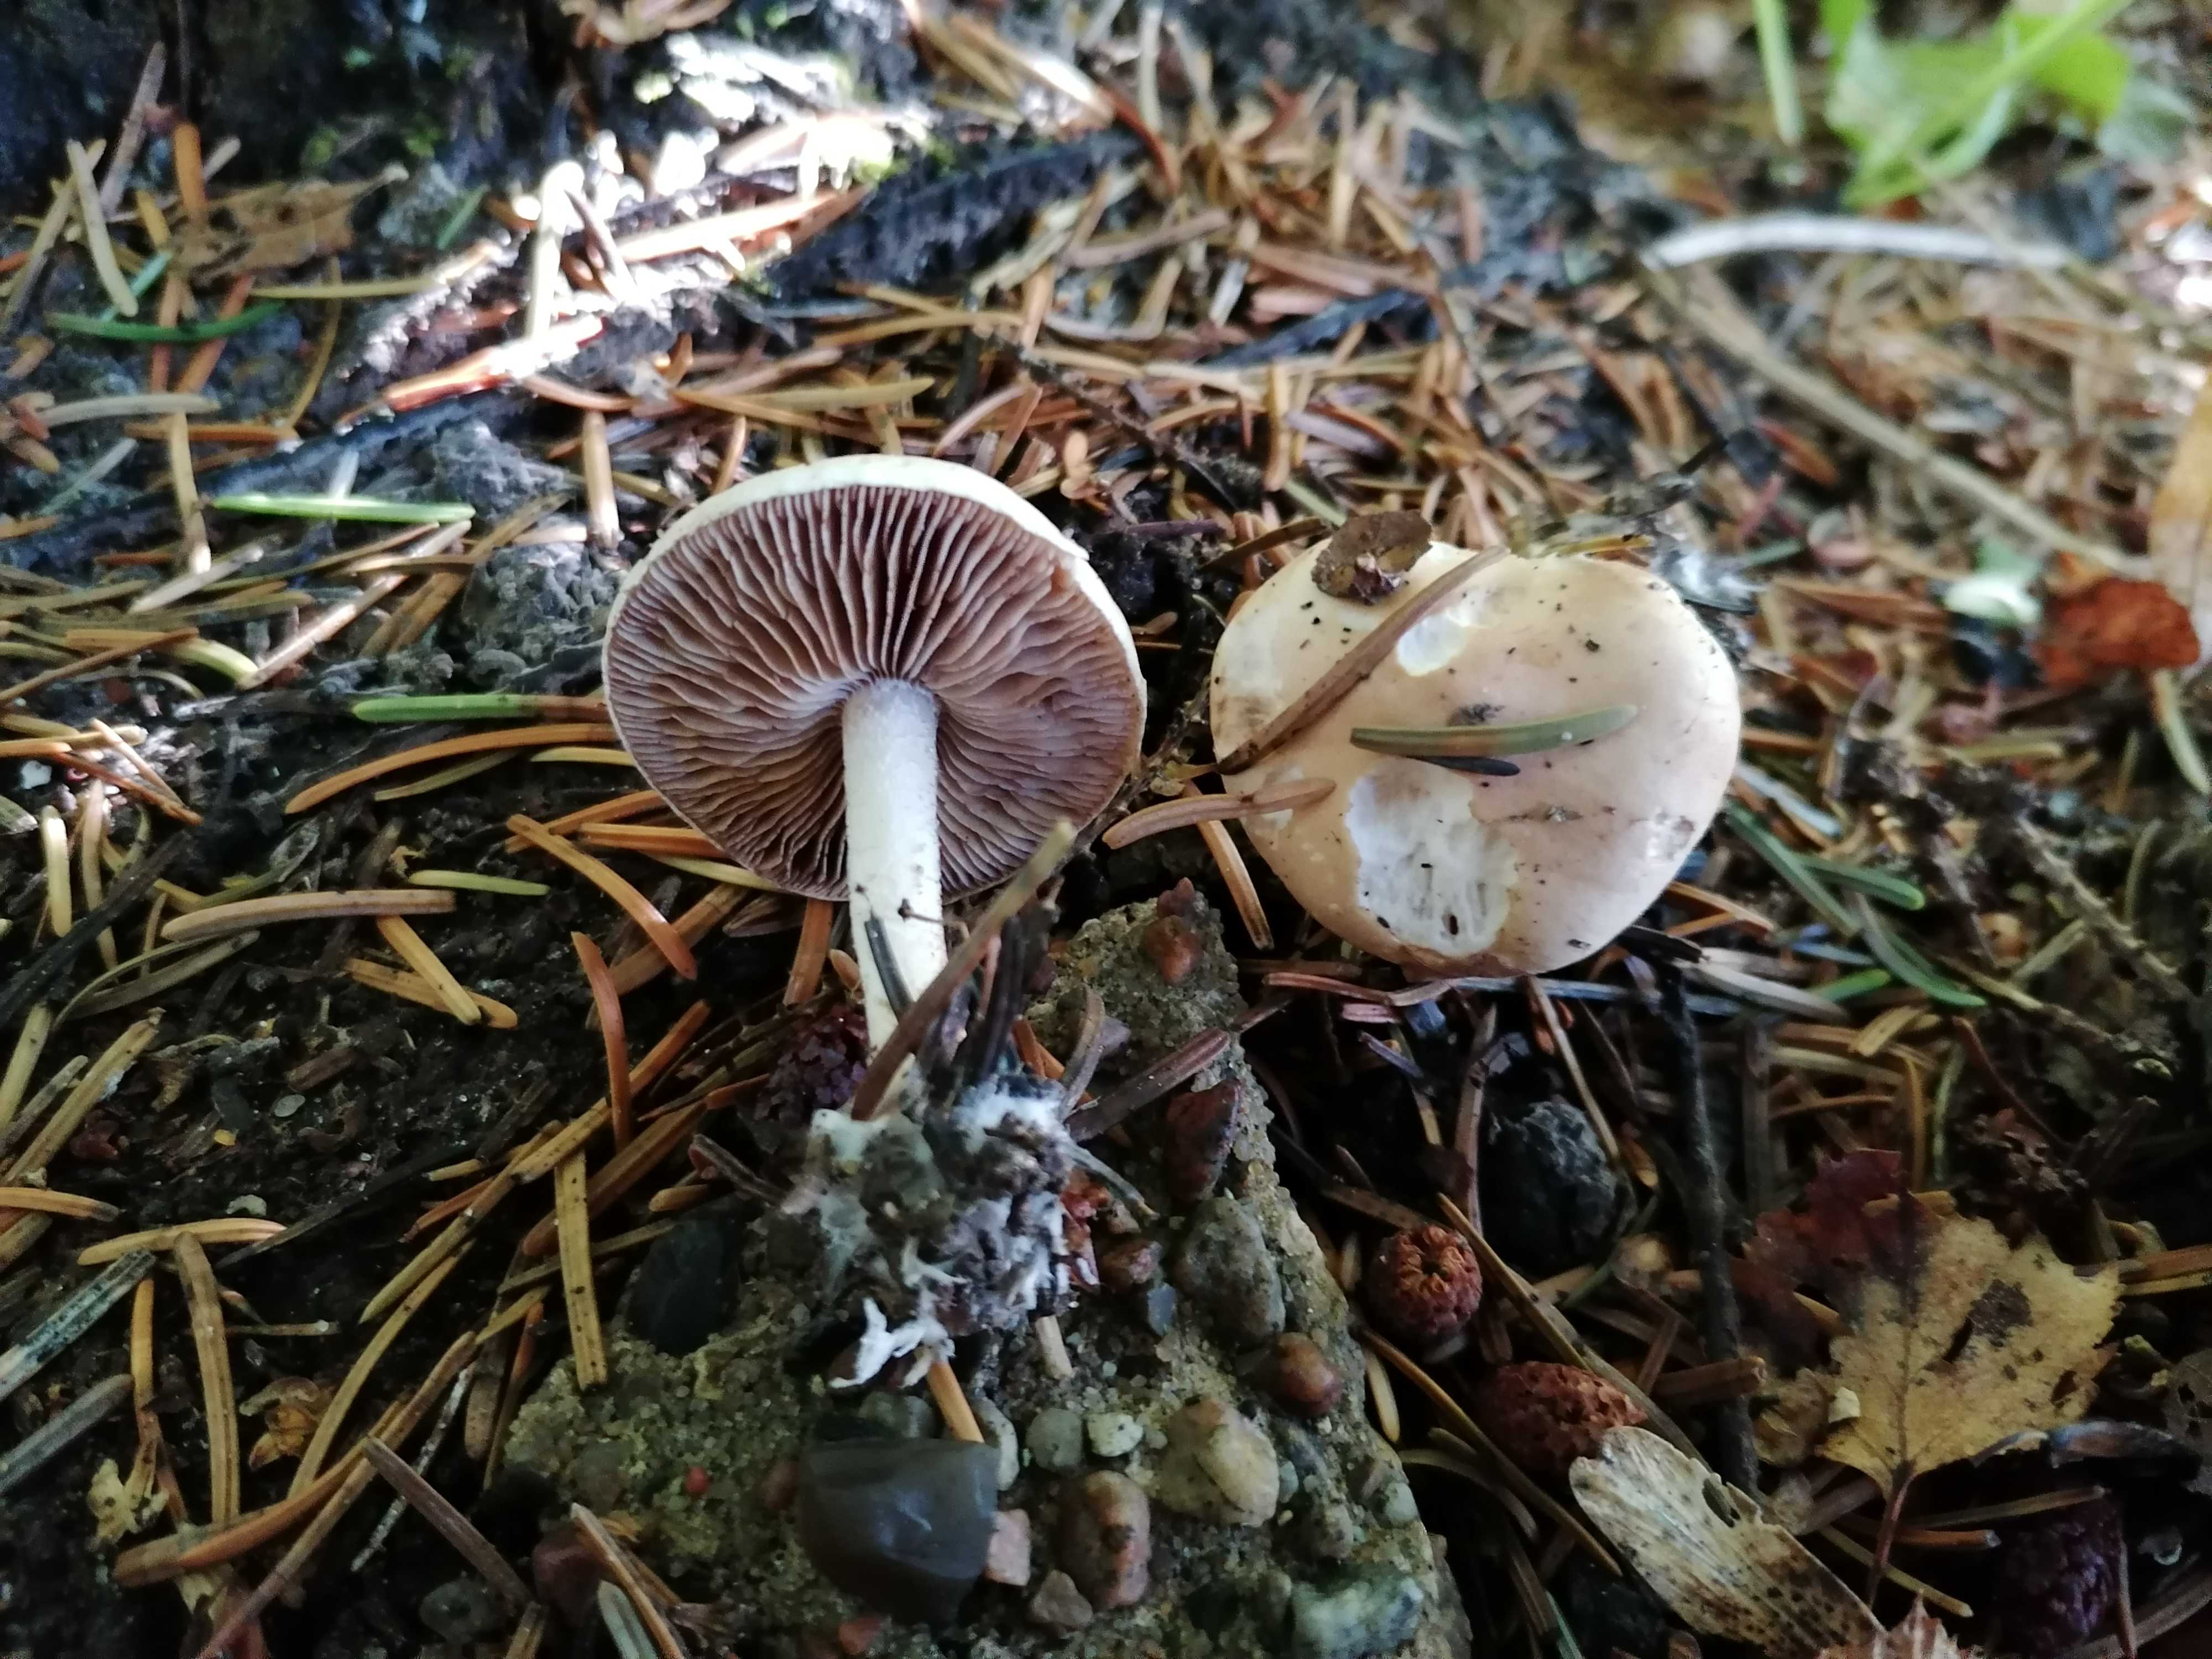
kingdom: Fungi
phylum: Basidiomycota
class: Agaricomycetes
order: Agaricales
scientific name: Agaricales
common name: champignonordenen
